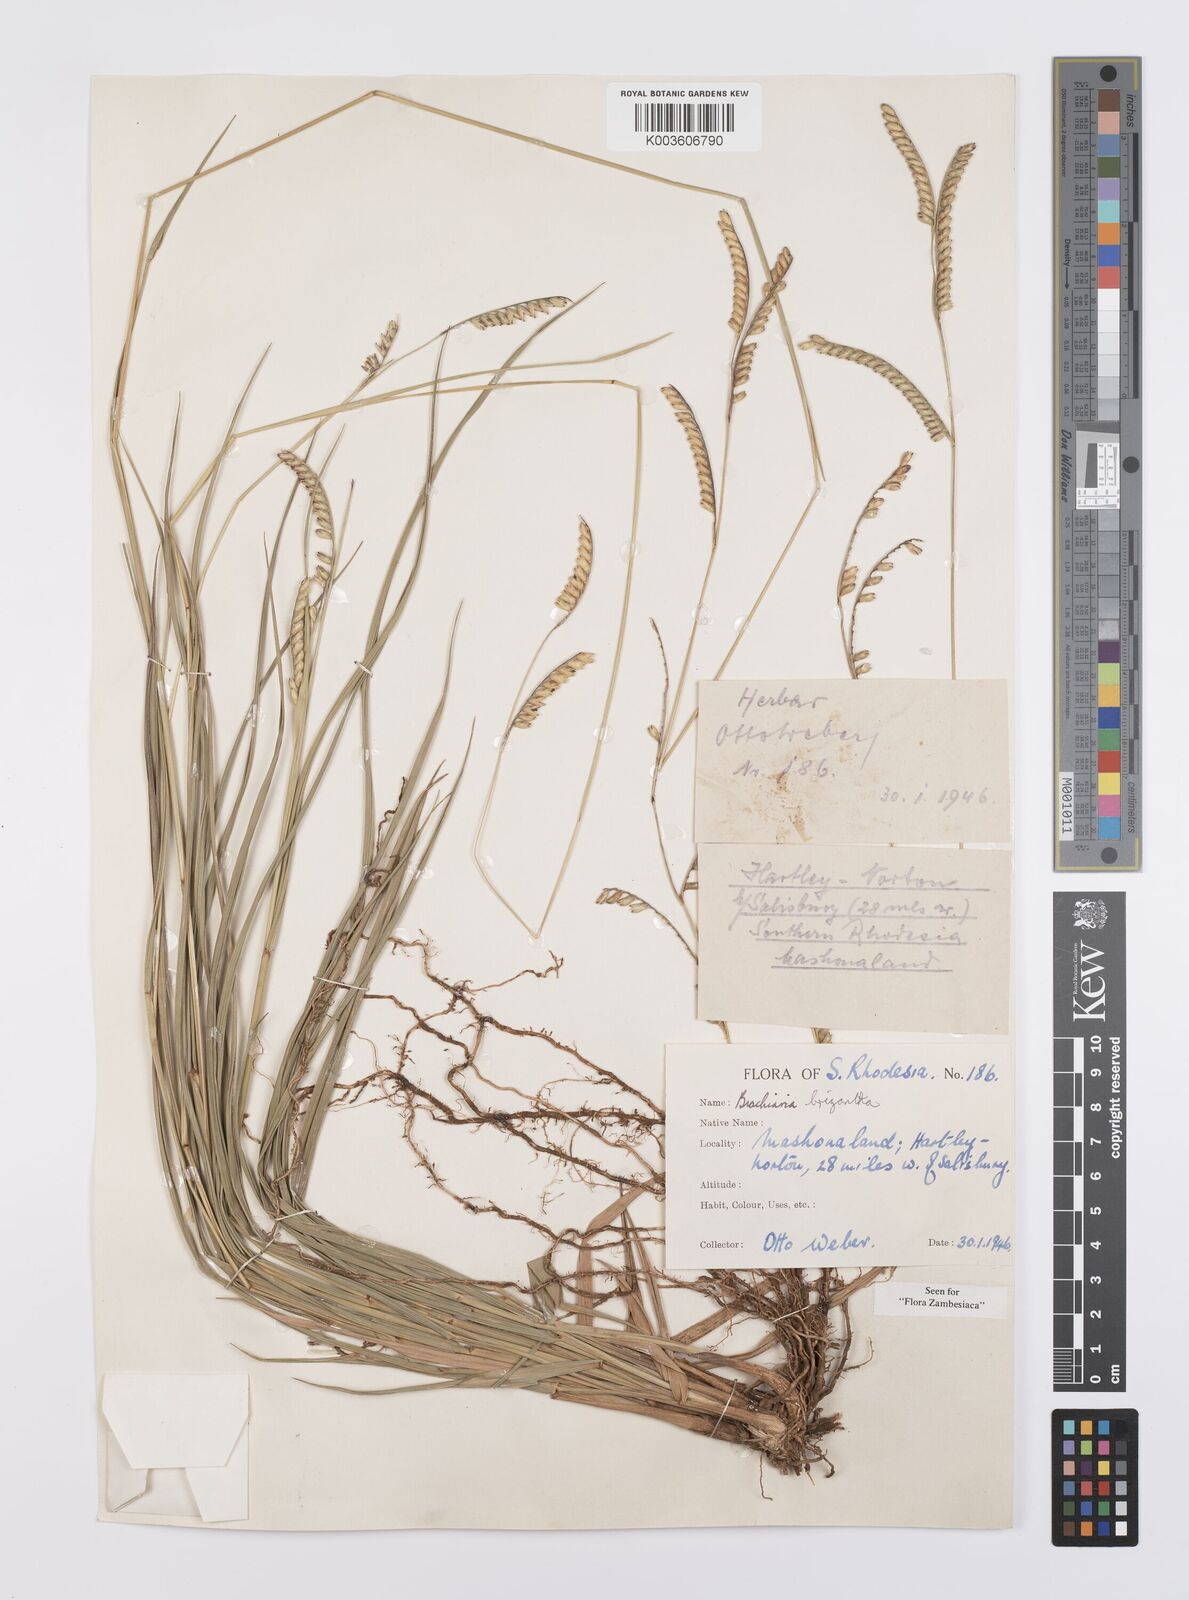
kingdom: Plantae
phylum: Tracheophyta
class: Liliopsida
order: Poales
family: Poaceae
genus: Urochloa
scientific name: Urochloa brizantha
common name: Palisade signalgrass
